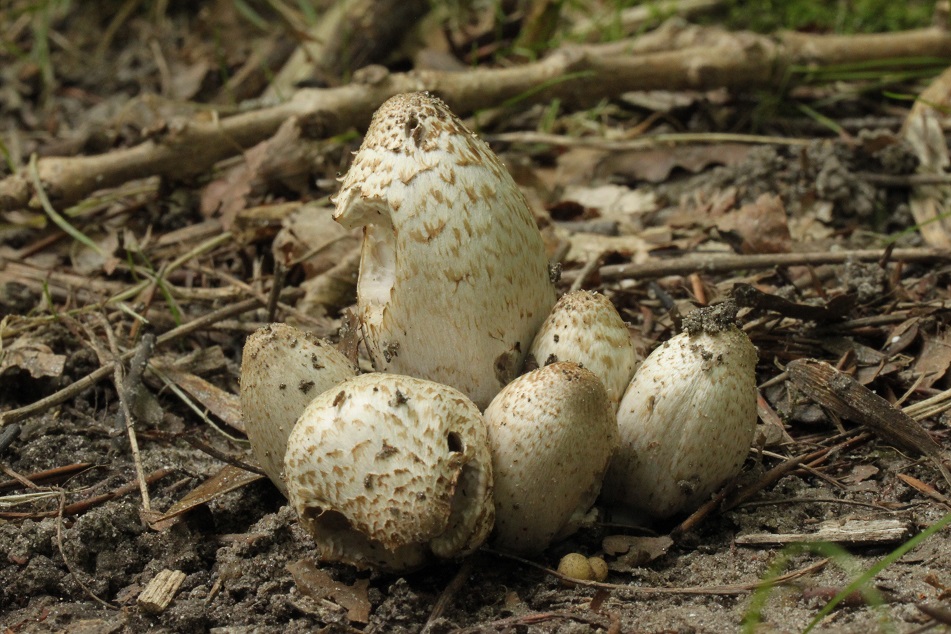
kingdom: Fungi
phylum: Basidiomycota
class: Agaricomycetes
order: Agaricales
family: Psathyrellaceae
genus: Coprinopsis
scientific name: Coprinopsis romagnesiana
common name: brunskællet blækhat
